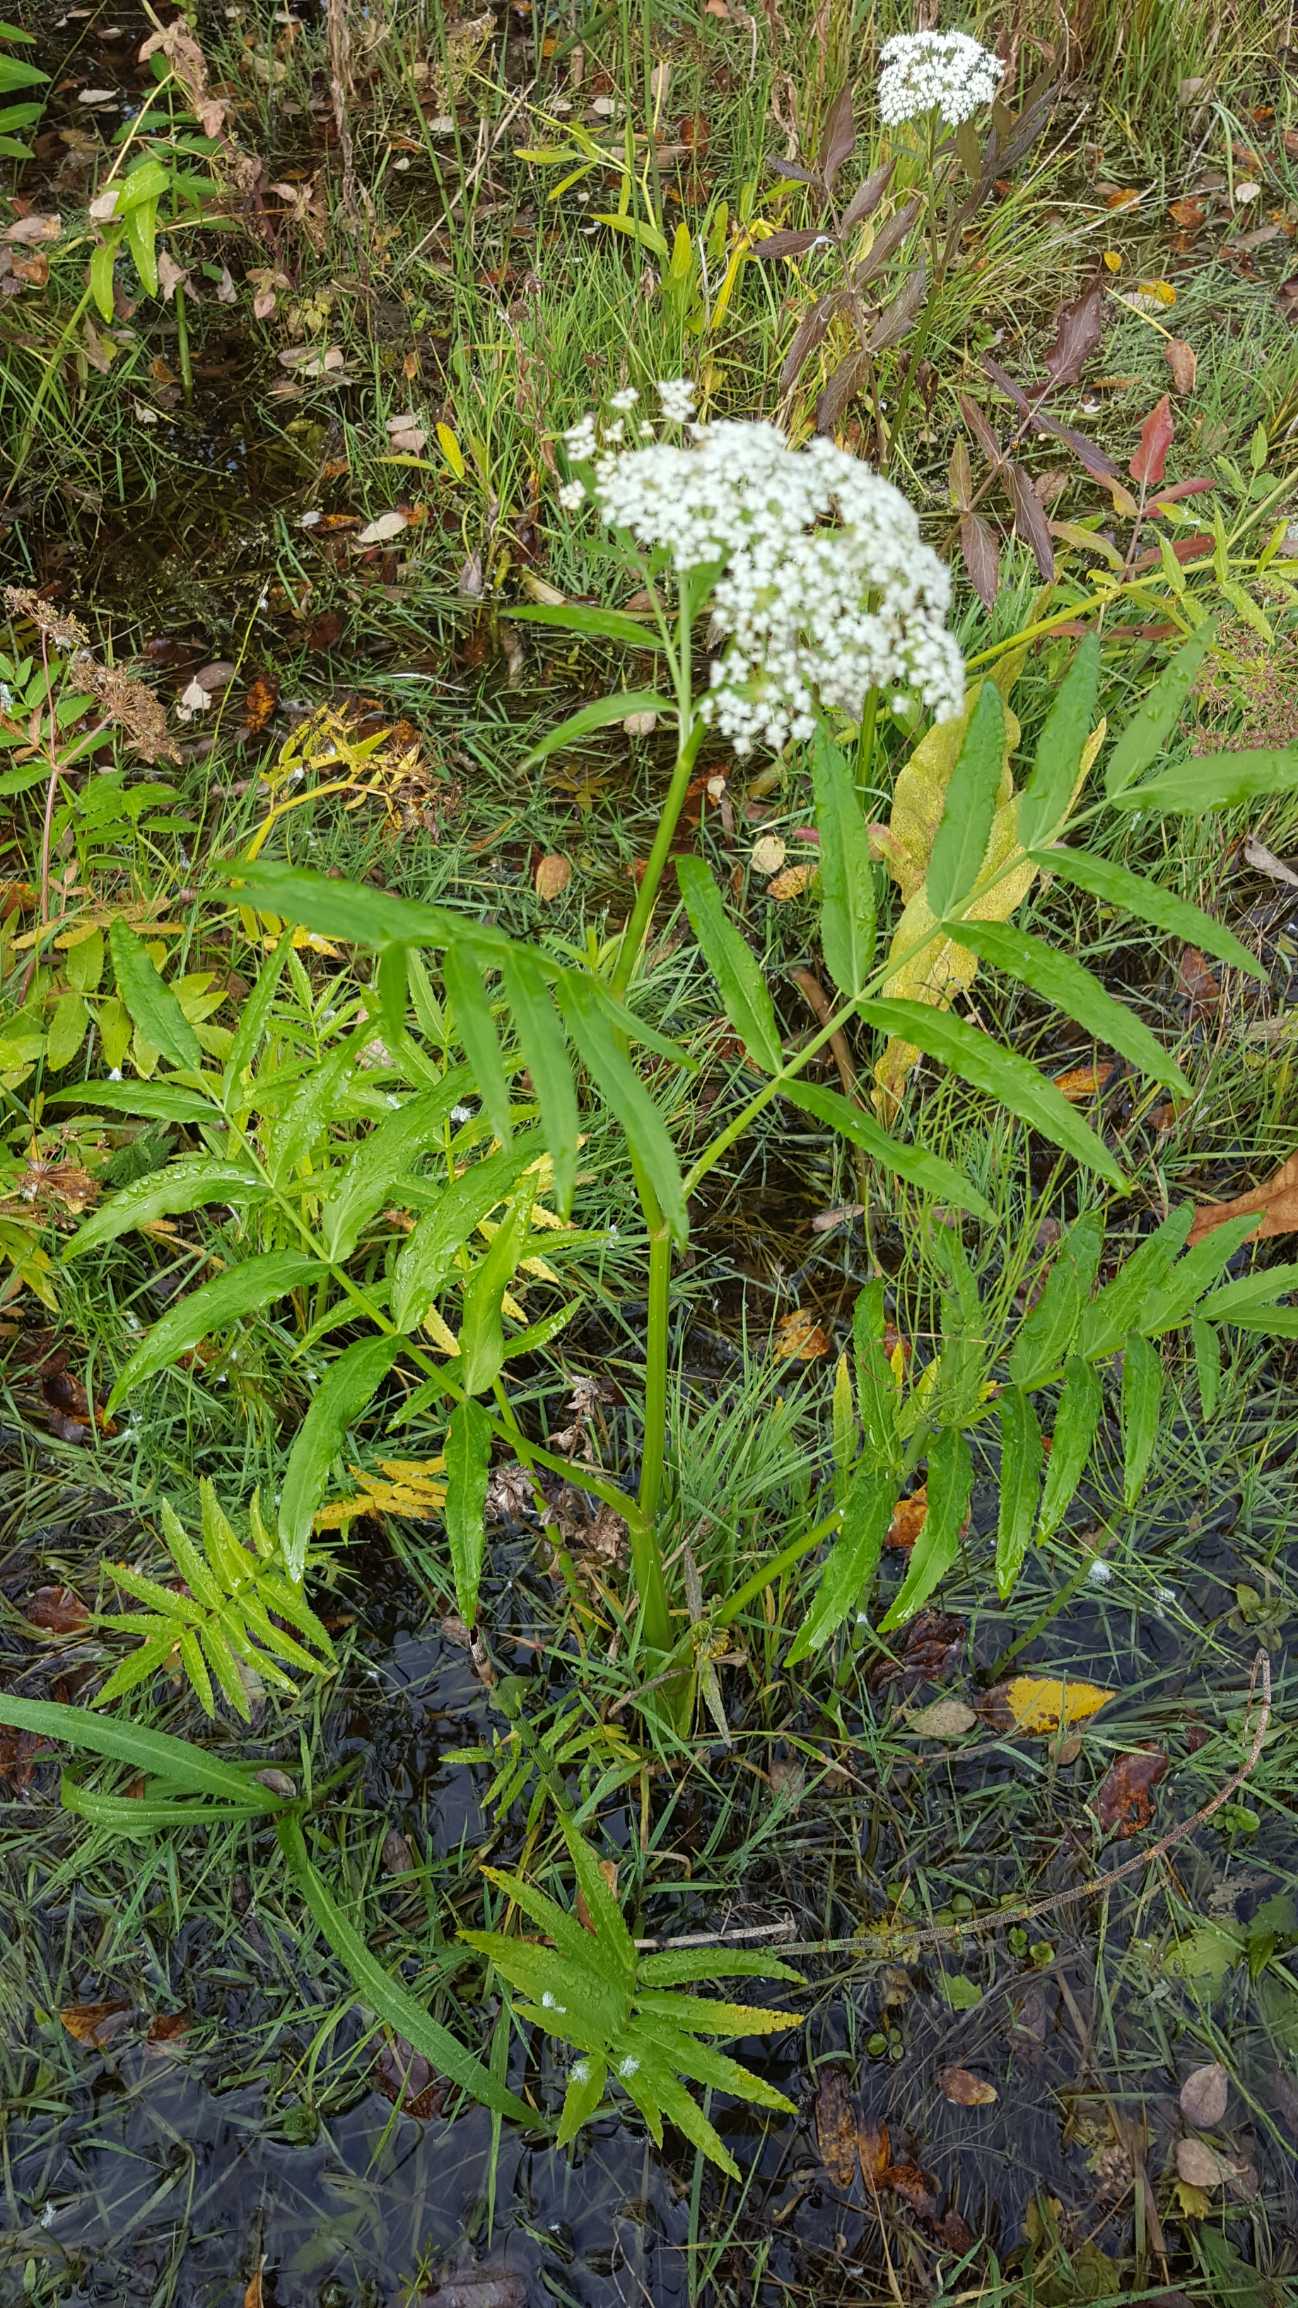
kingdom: Plantae
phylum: Tracheophyta
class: Magnoliopsida
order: Apiales
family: Apiaceae
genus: Sium
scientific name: Sium latifolium
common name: Bredbladet mærke
